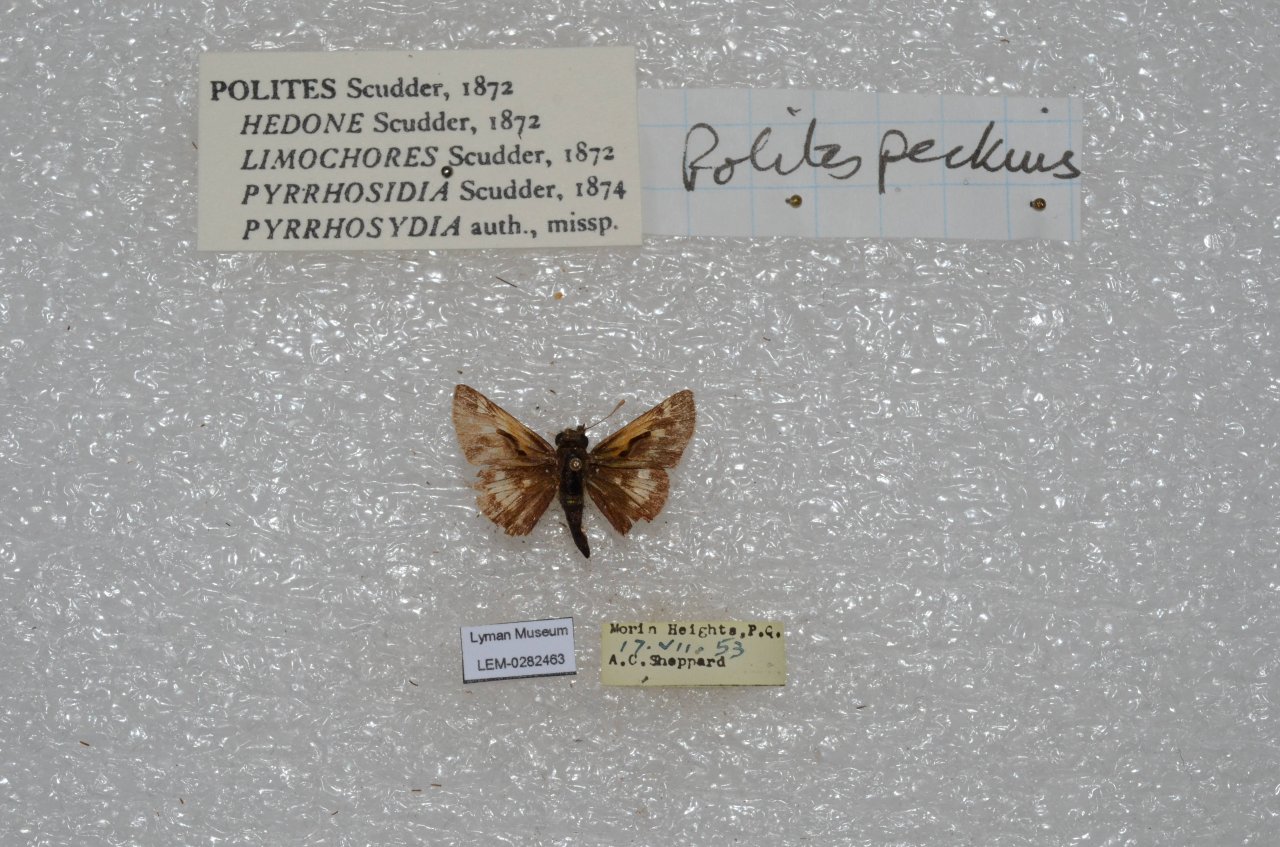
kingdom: Animalia
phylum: Arthropoda
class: Insecta
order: Lepidoptera
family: Hesperiidae
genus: Polites
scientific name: Polites coras
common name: Peck's Skipper
